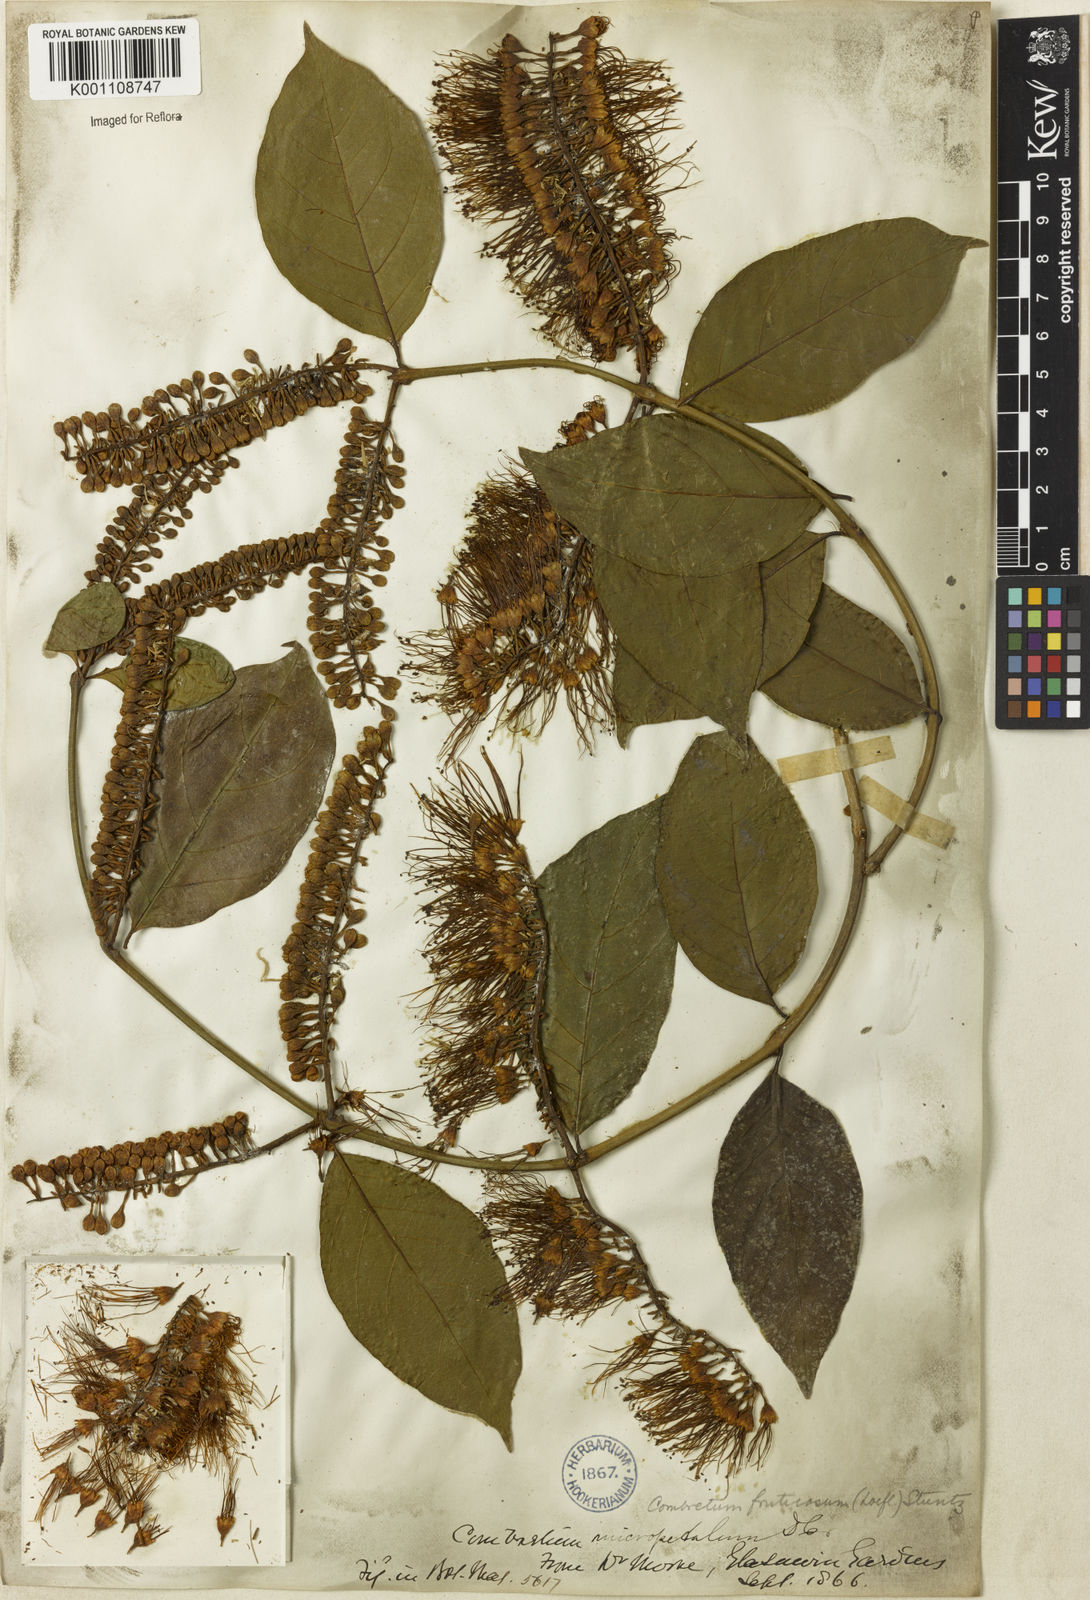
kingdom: Plantae
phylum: Tracheophyta
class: Magnoliopsida
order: Myrtales
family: Combretaceae
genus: Combretum
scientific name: Combretum fruticosum
